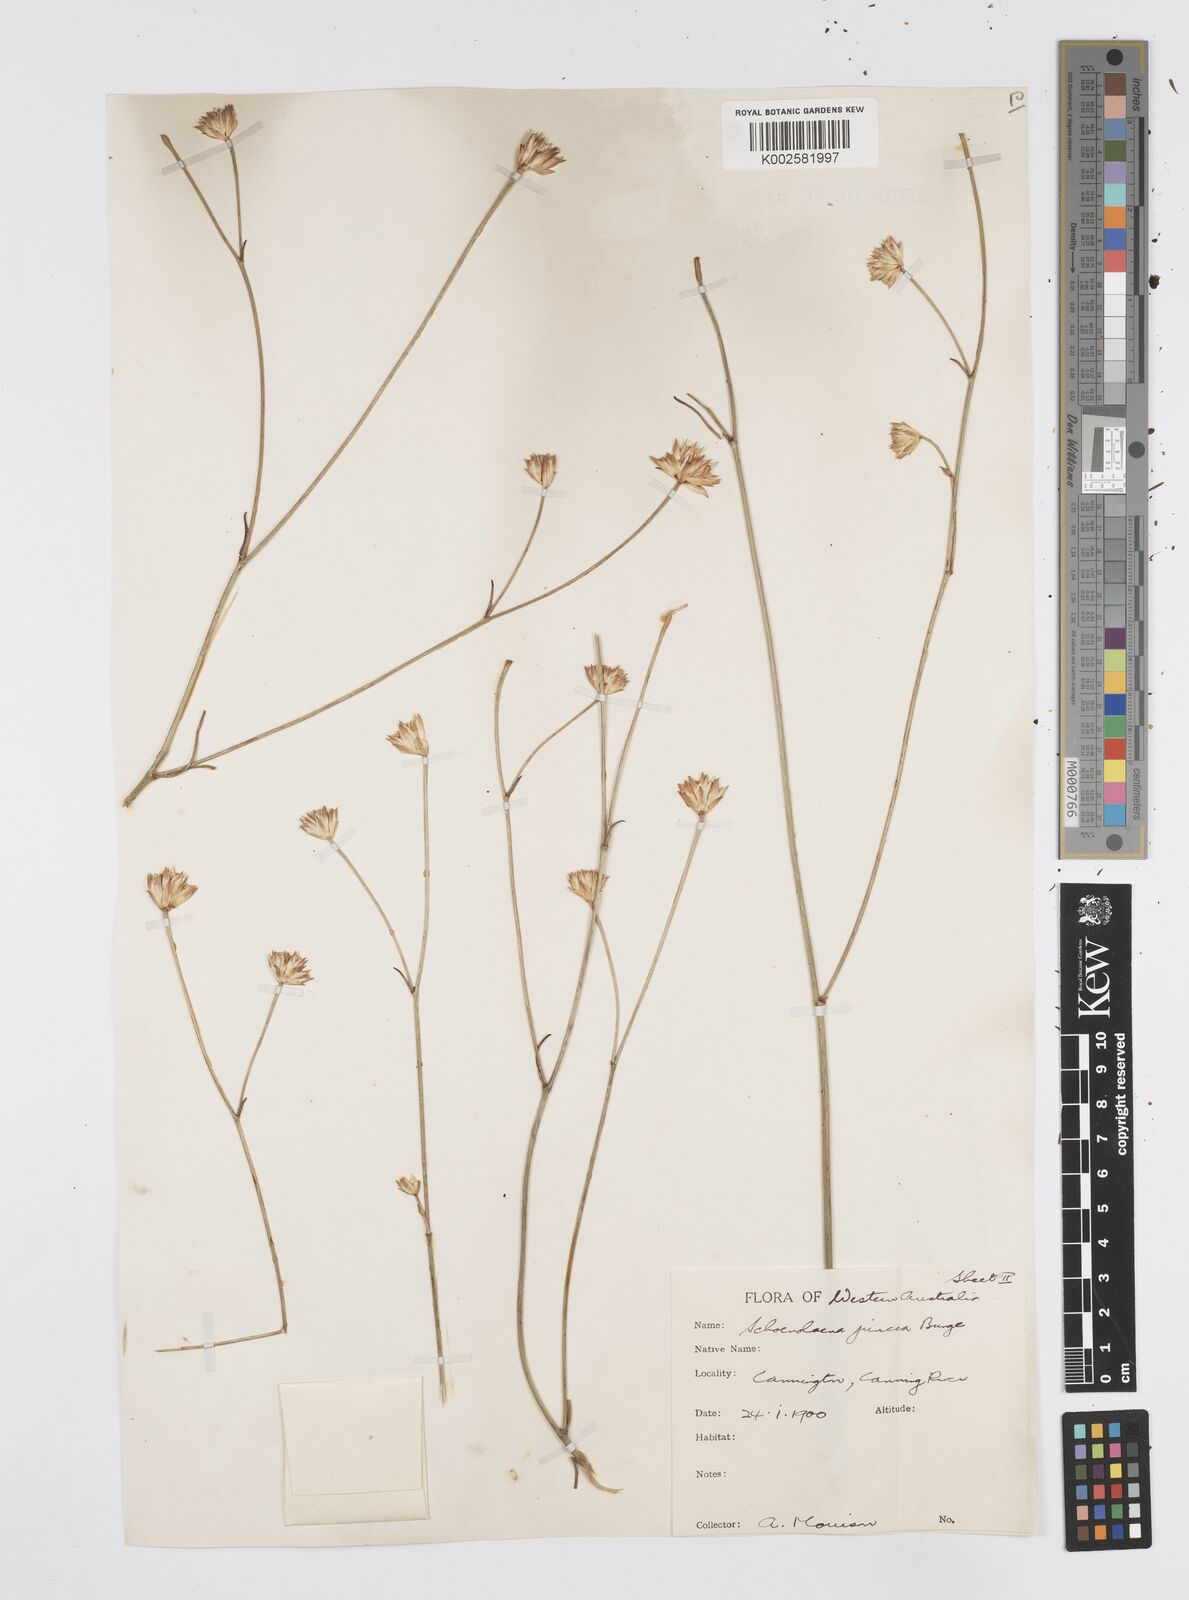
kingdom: Plantae
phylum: Tracheophyta
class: Magnoliopsida
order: Apiales
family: Apiaceae
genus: Schoenolaena
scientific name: Schoenolaena juncea
